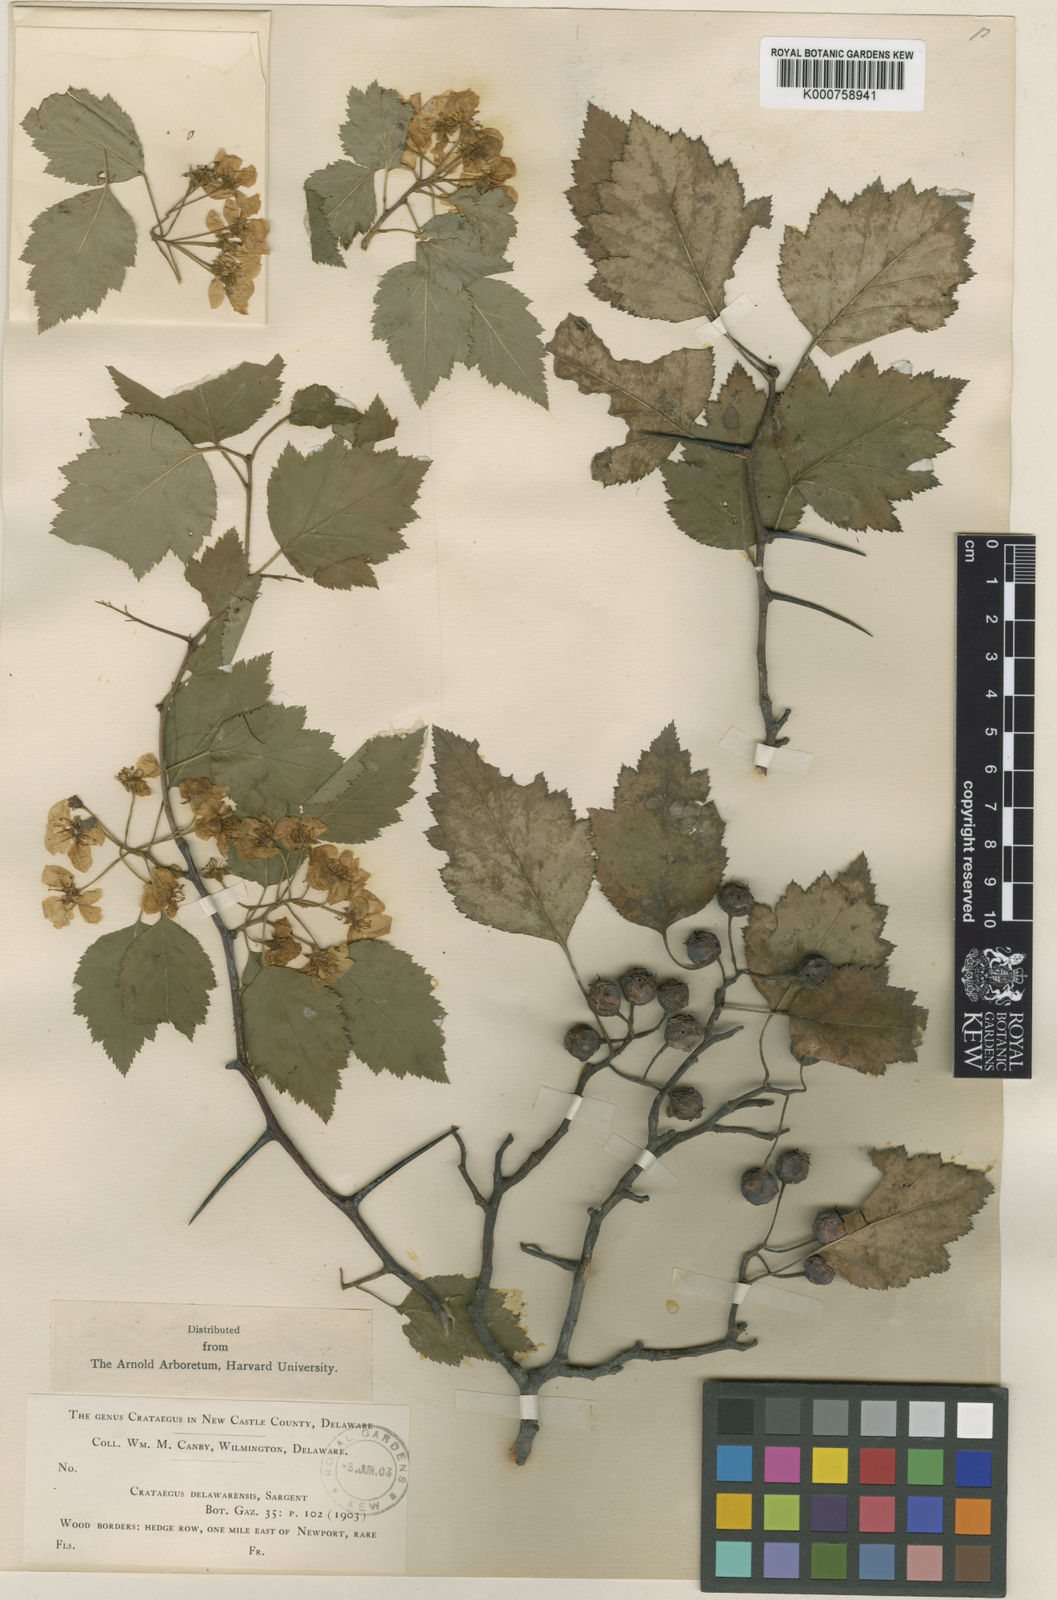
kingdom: Plantae
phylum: Tracheophyta
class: Magnoliopsida
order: Rosales
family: Rosaceae
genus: Crataegus
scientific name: Crataegus delawarensis
